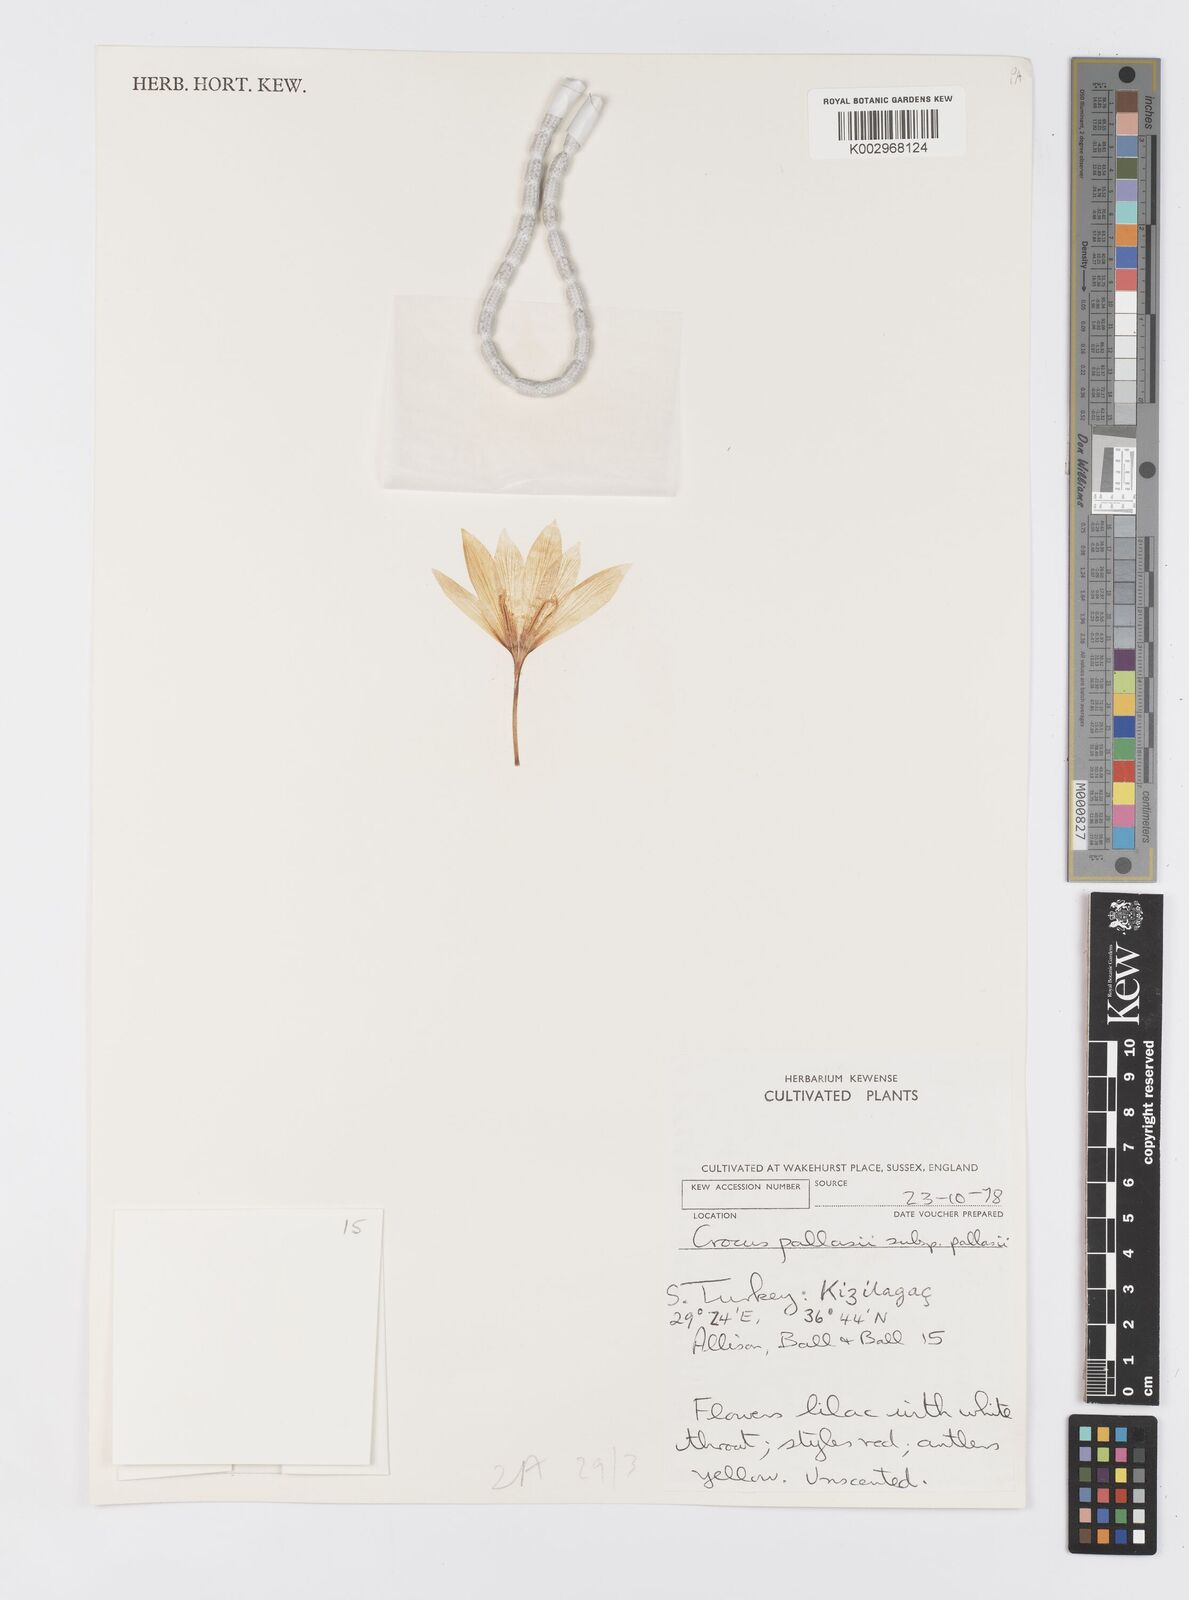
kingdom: Plantae
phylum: Tracheophyta
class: Liliopsida
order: Asparagales
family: Iridaceae
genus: Crocus
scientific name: Crocus
